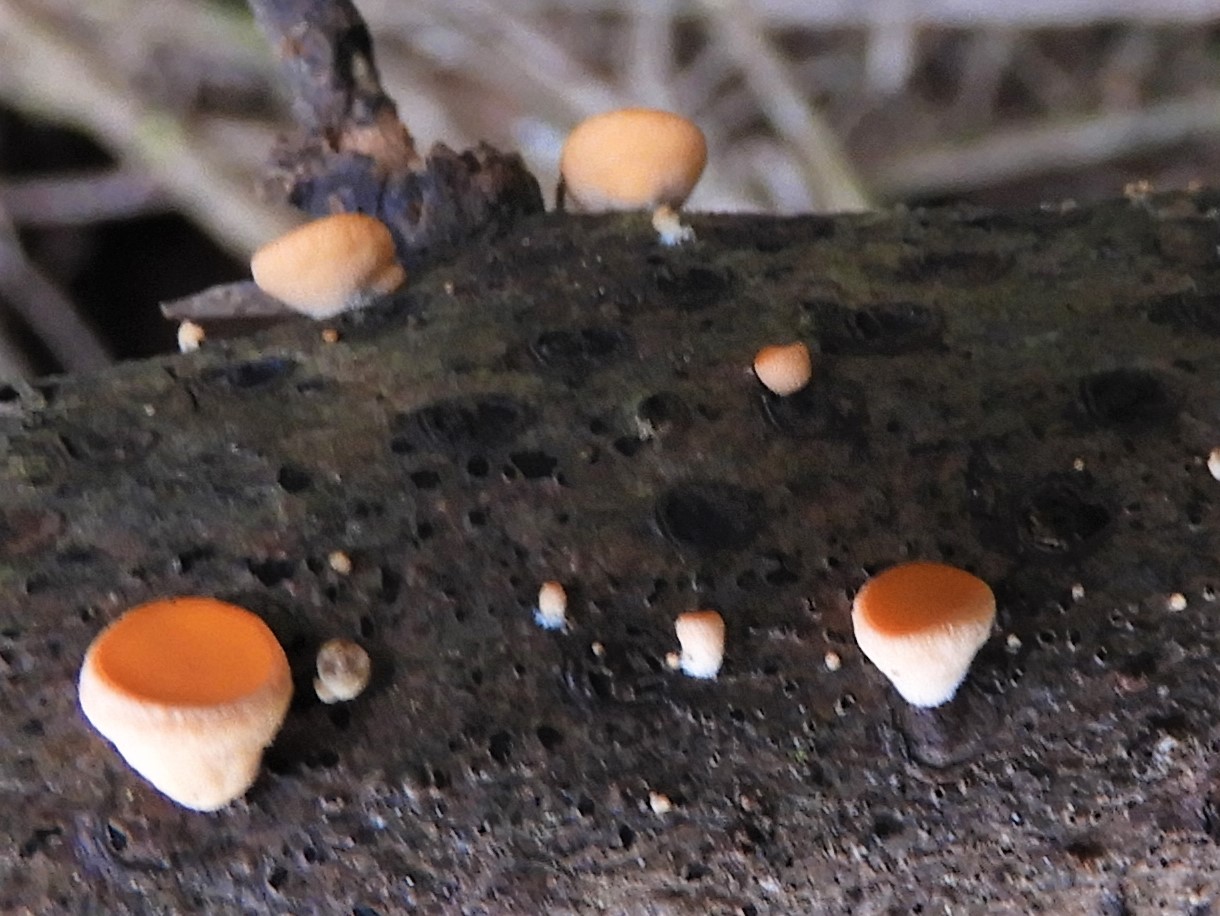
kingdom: Fungi
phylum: Ascomycota
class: Pezizomycetes
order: Pezizales
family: Sarcoscyphaceae
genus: Pithya
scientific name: Pithya vulgaris
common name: stor dukatbæger
